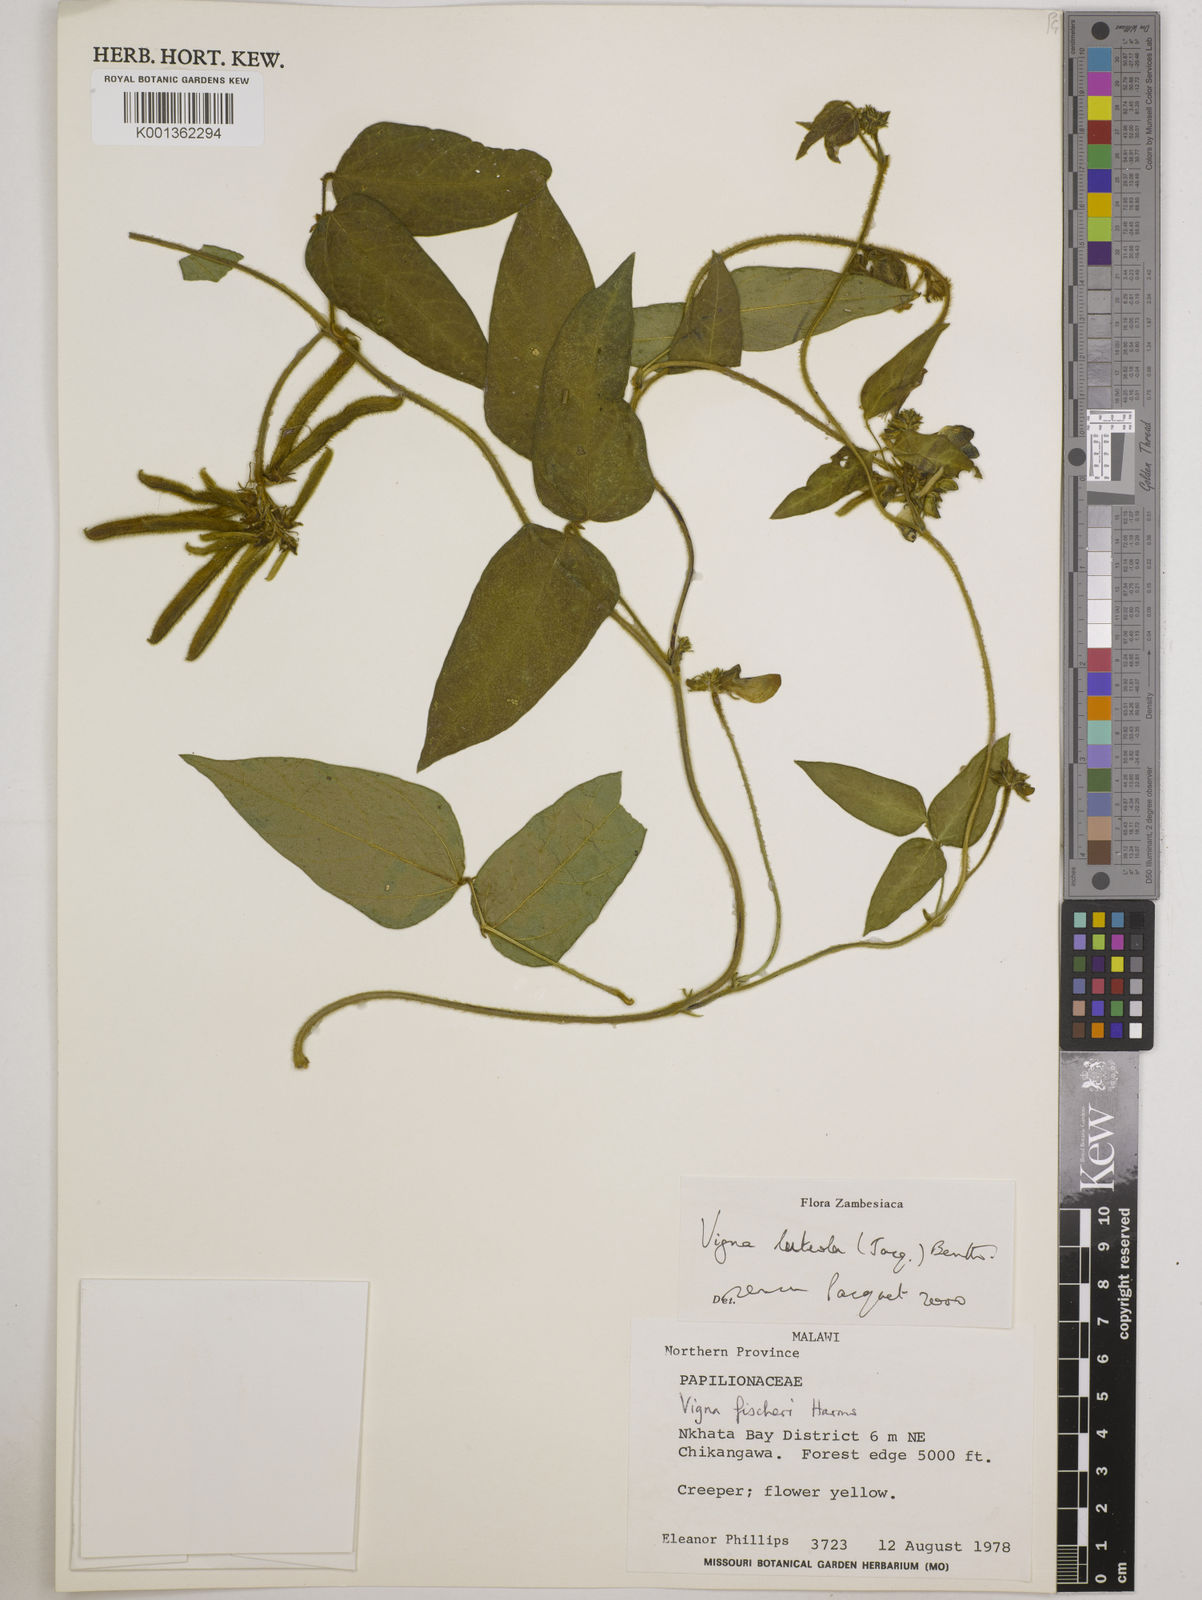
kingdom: Plantae
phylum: Tracheophyta
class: Magnoliopsida
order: Fabales
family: Fabaceae
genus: Vigna
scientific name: Vigna oblongifolia
